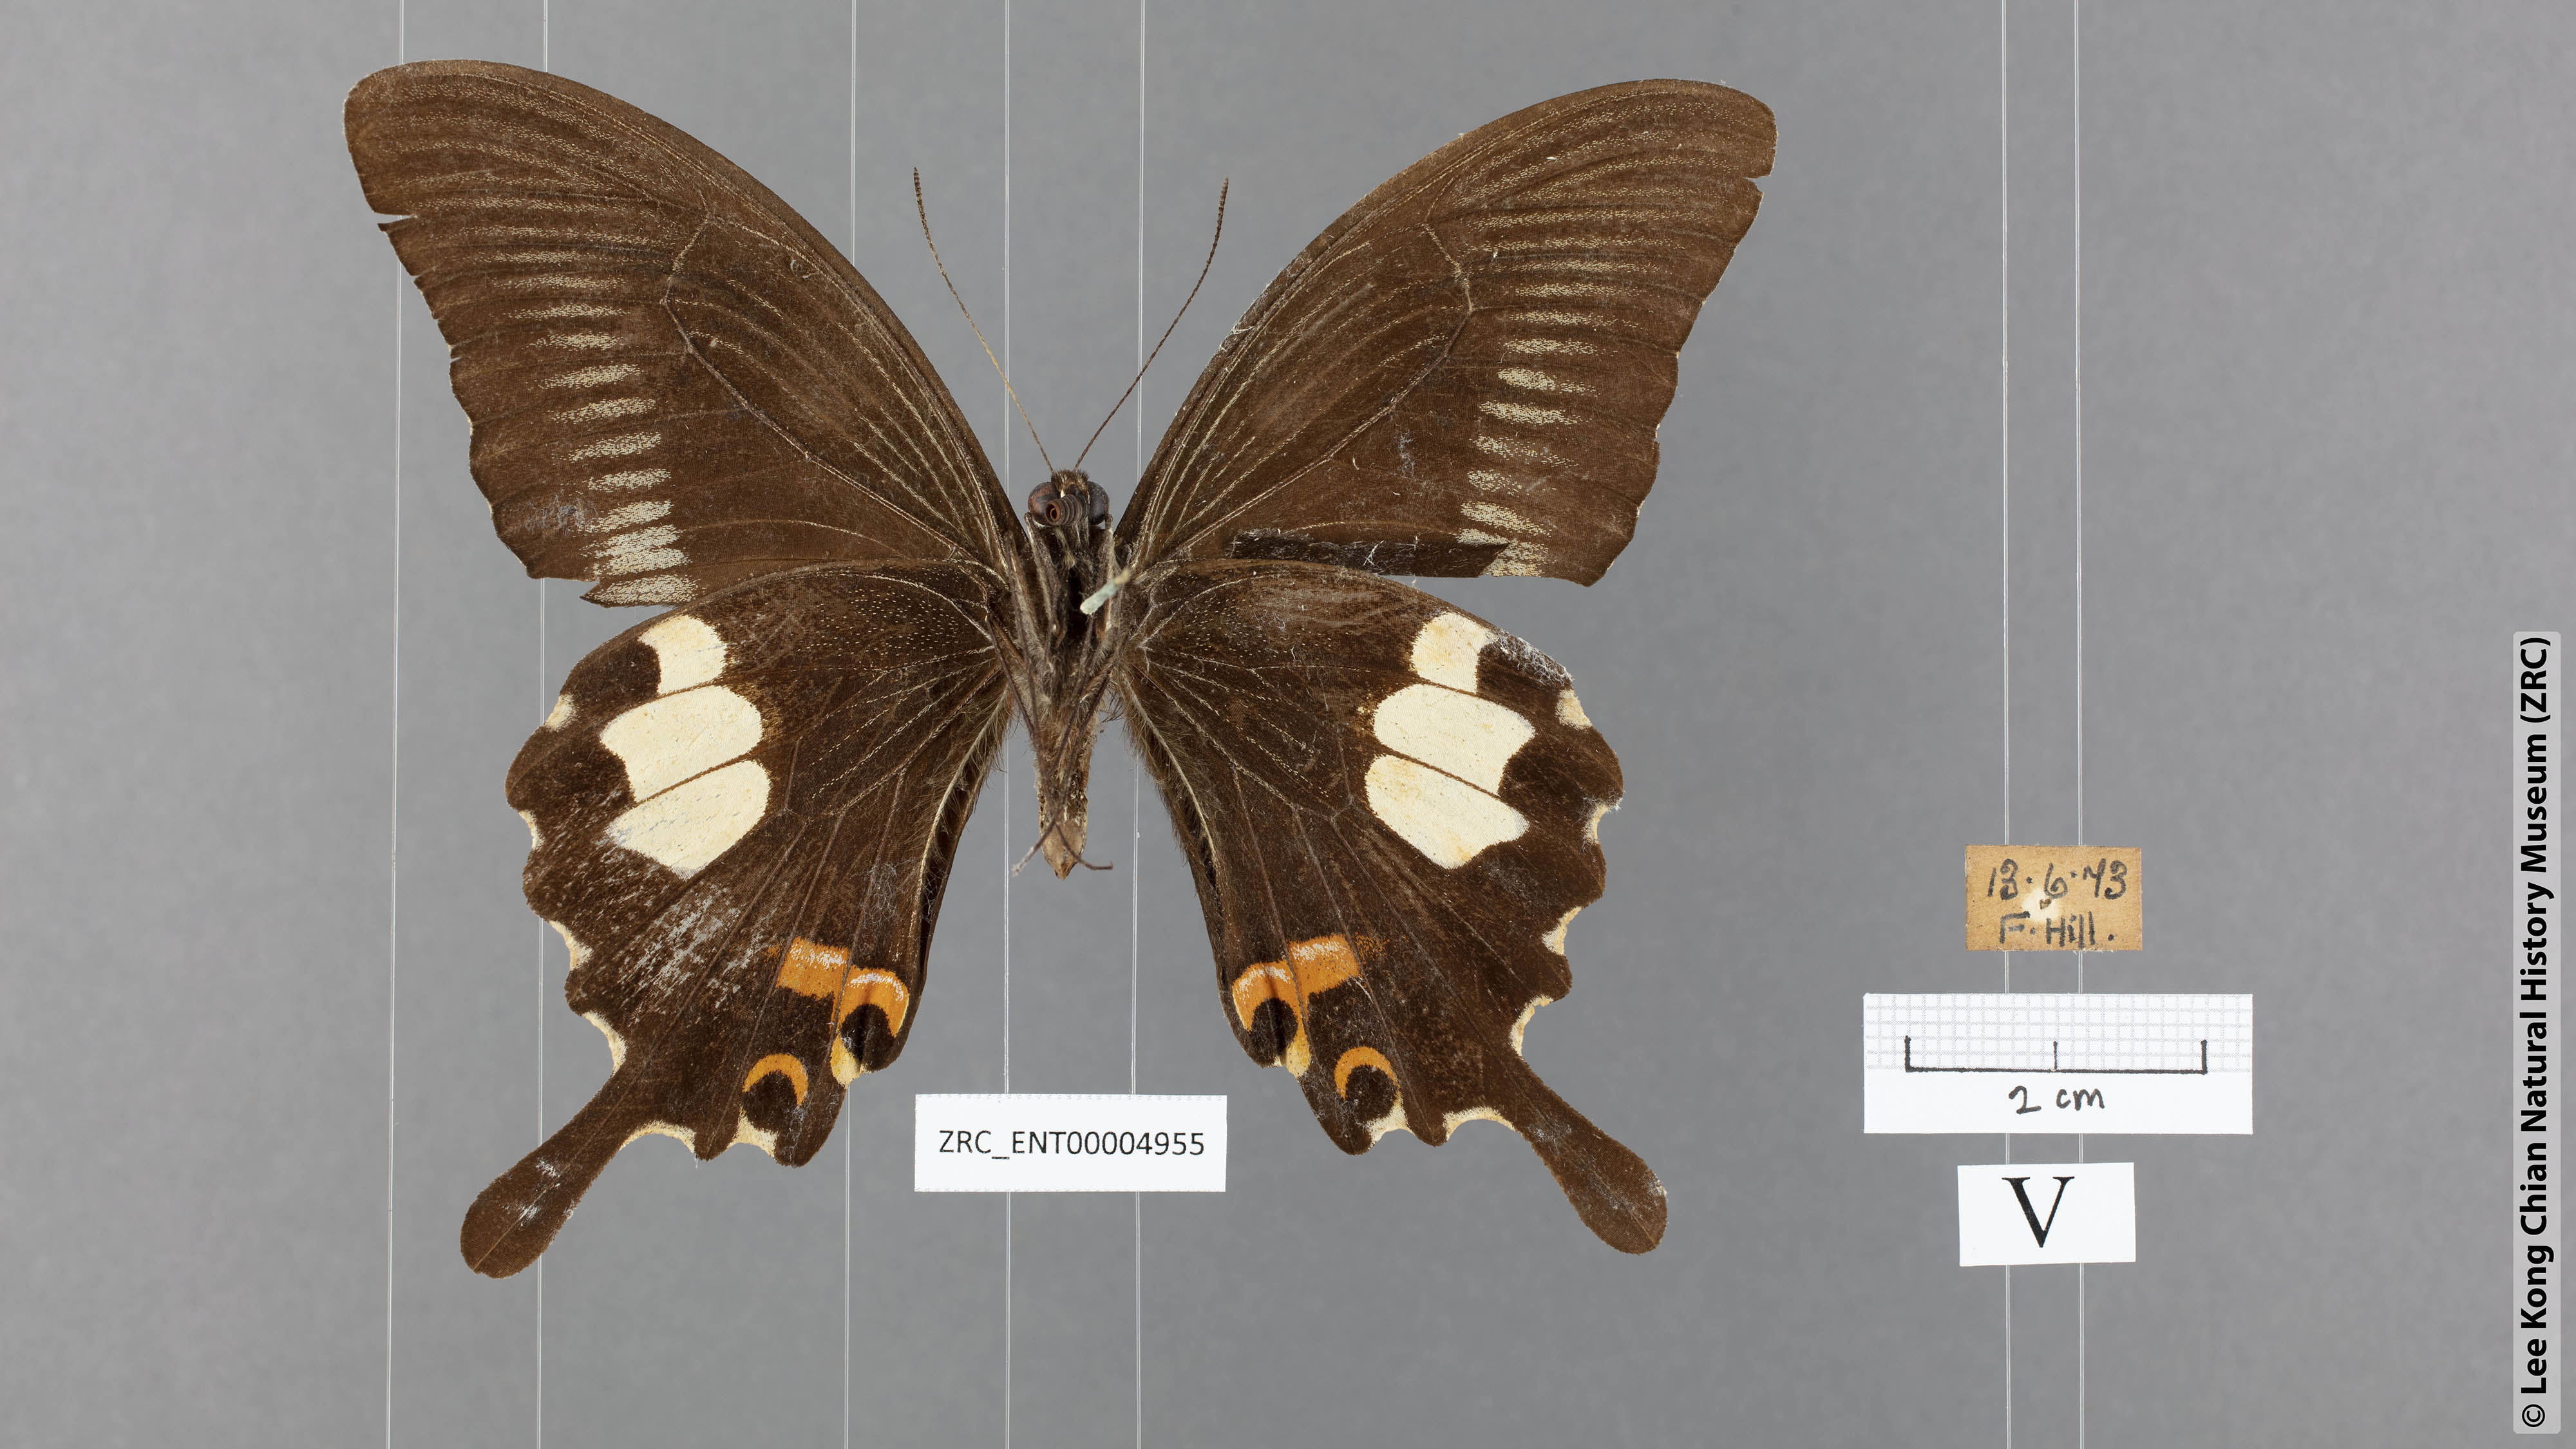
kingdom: Animalia
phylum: Arthropoda
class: Insecta
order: Lepidoptera
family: Papilionidae
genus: Papilio
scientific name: Papilio iswaroides
